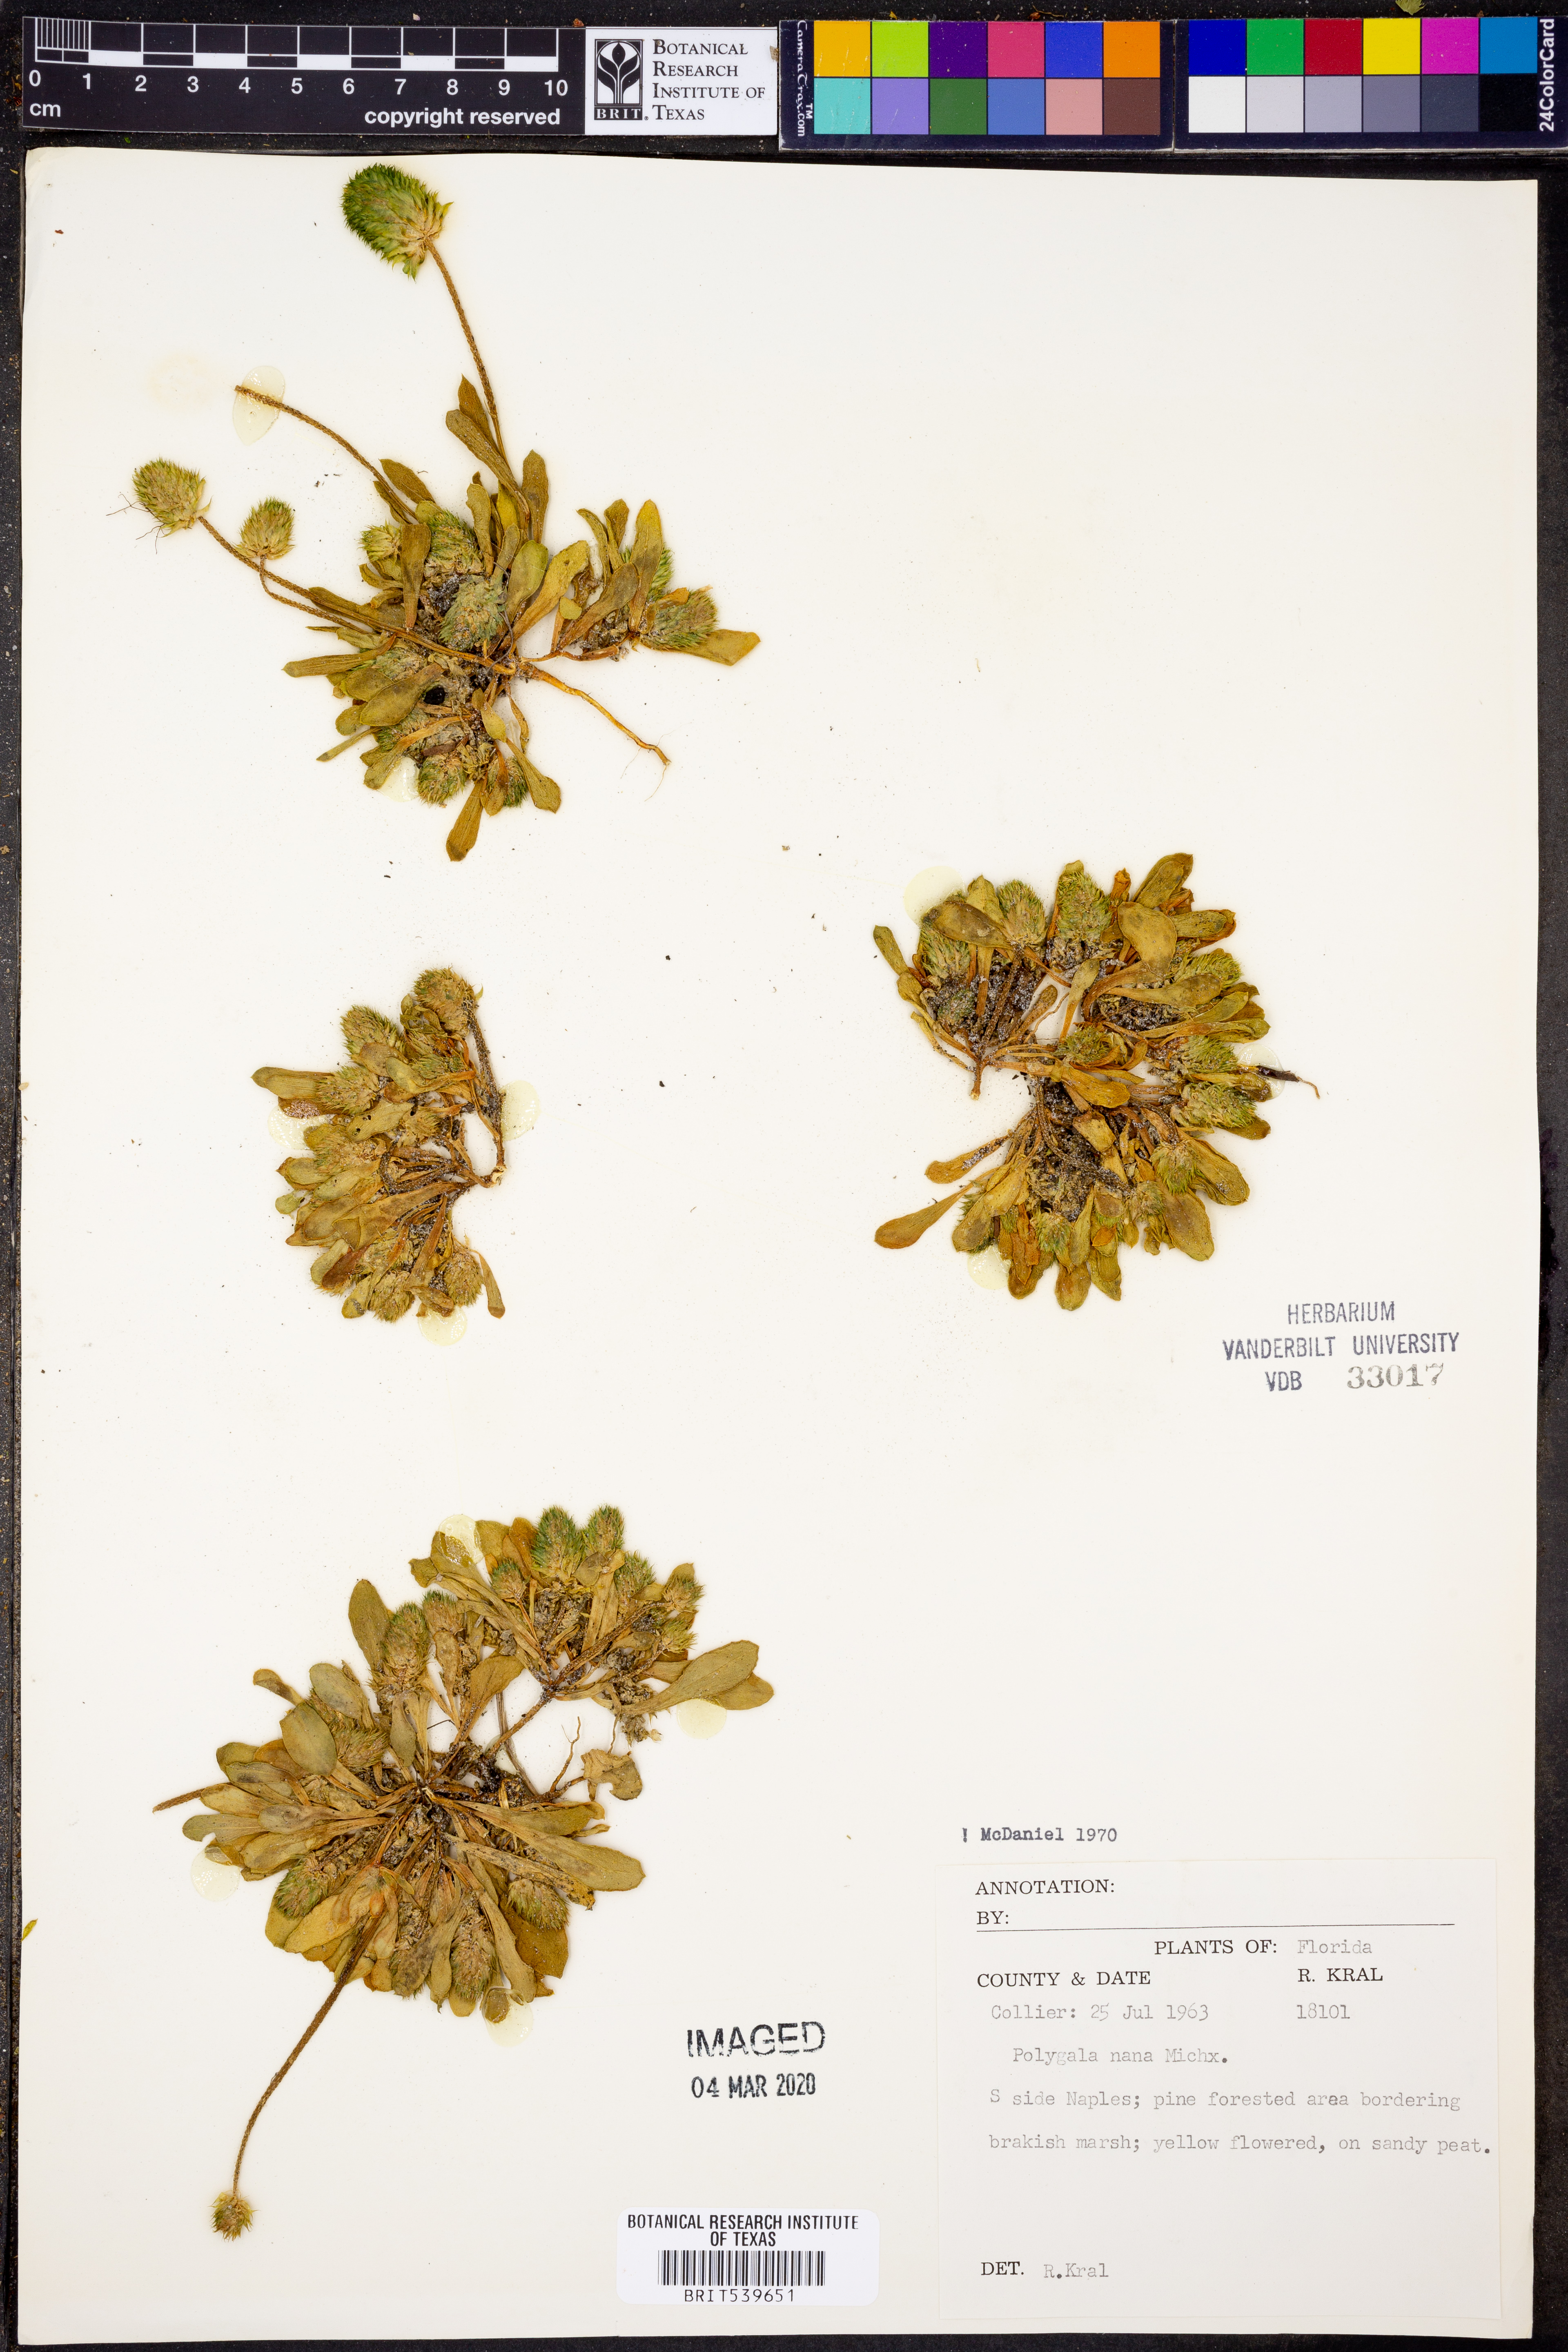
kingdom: Plantae
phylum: Tracheophyta
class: Magnoliopsida
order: Fabales
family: Polygalaceae
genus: Polygala
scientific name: Polygala nana
